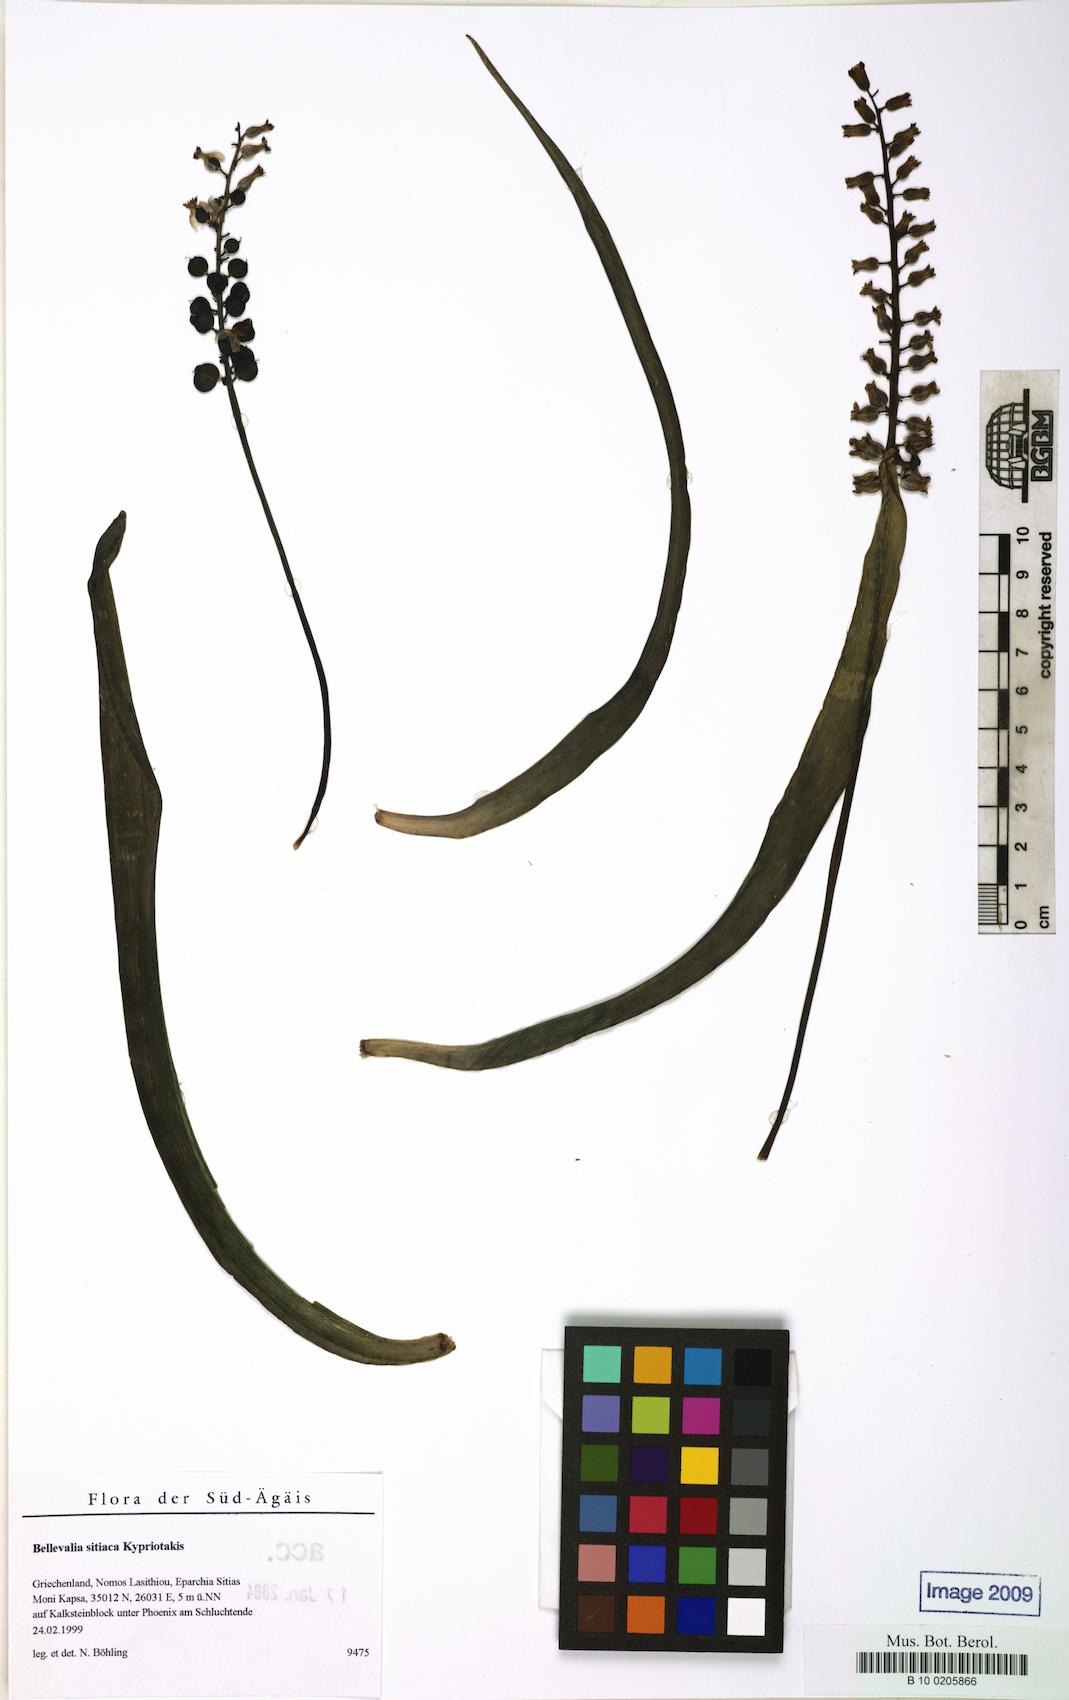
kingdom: Plantae
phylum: Tracheophyta
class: Liliopsida
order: Asparagales
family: Asparagaceae
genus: Bellevalia
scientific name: Bellevalia sitiaca
